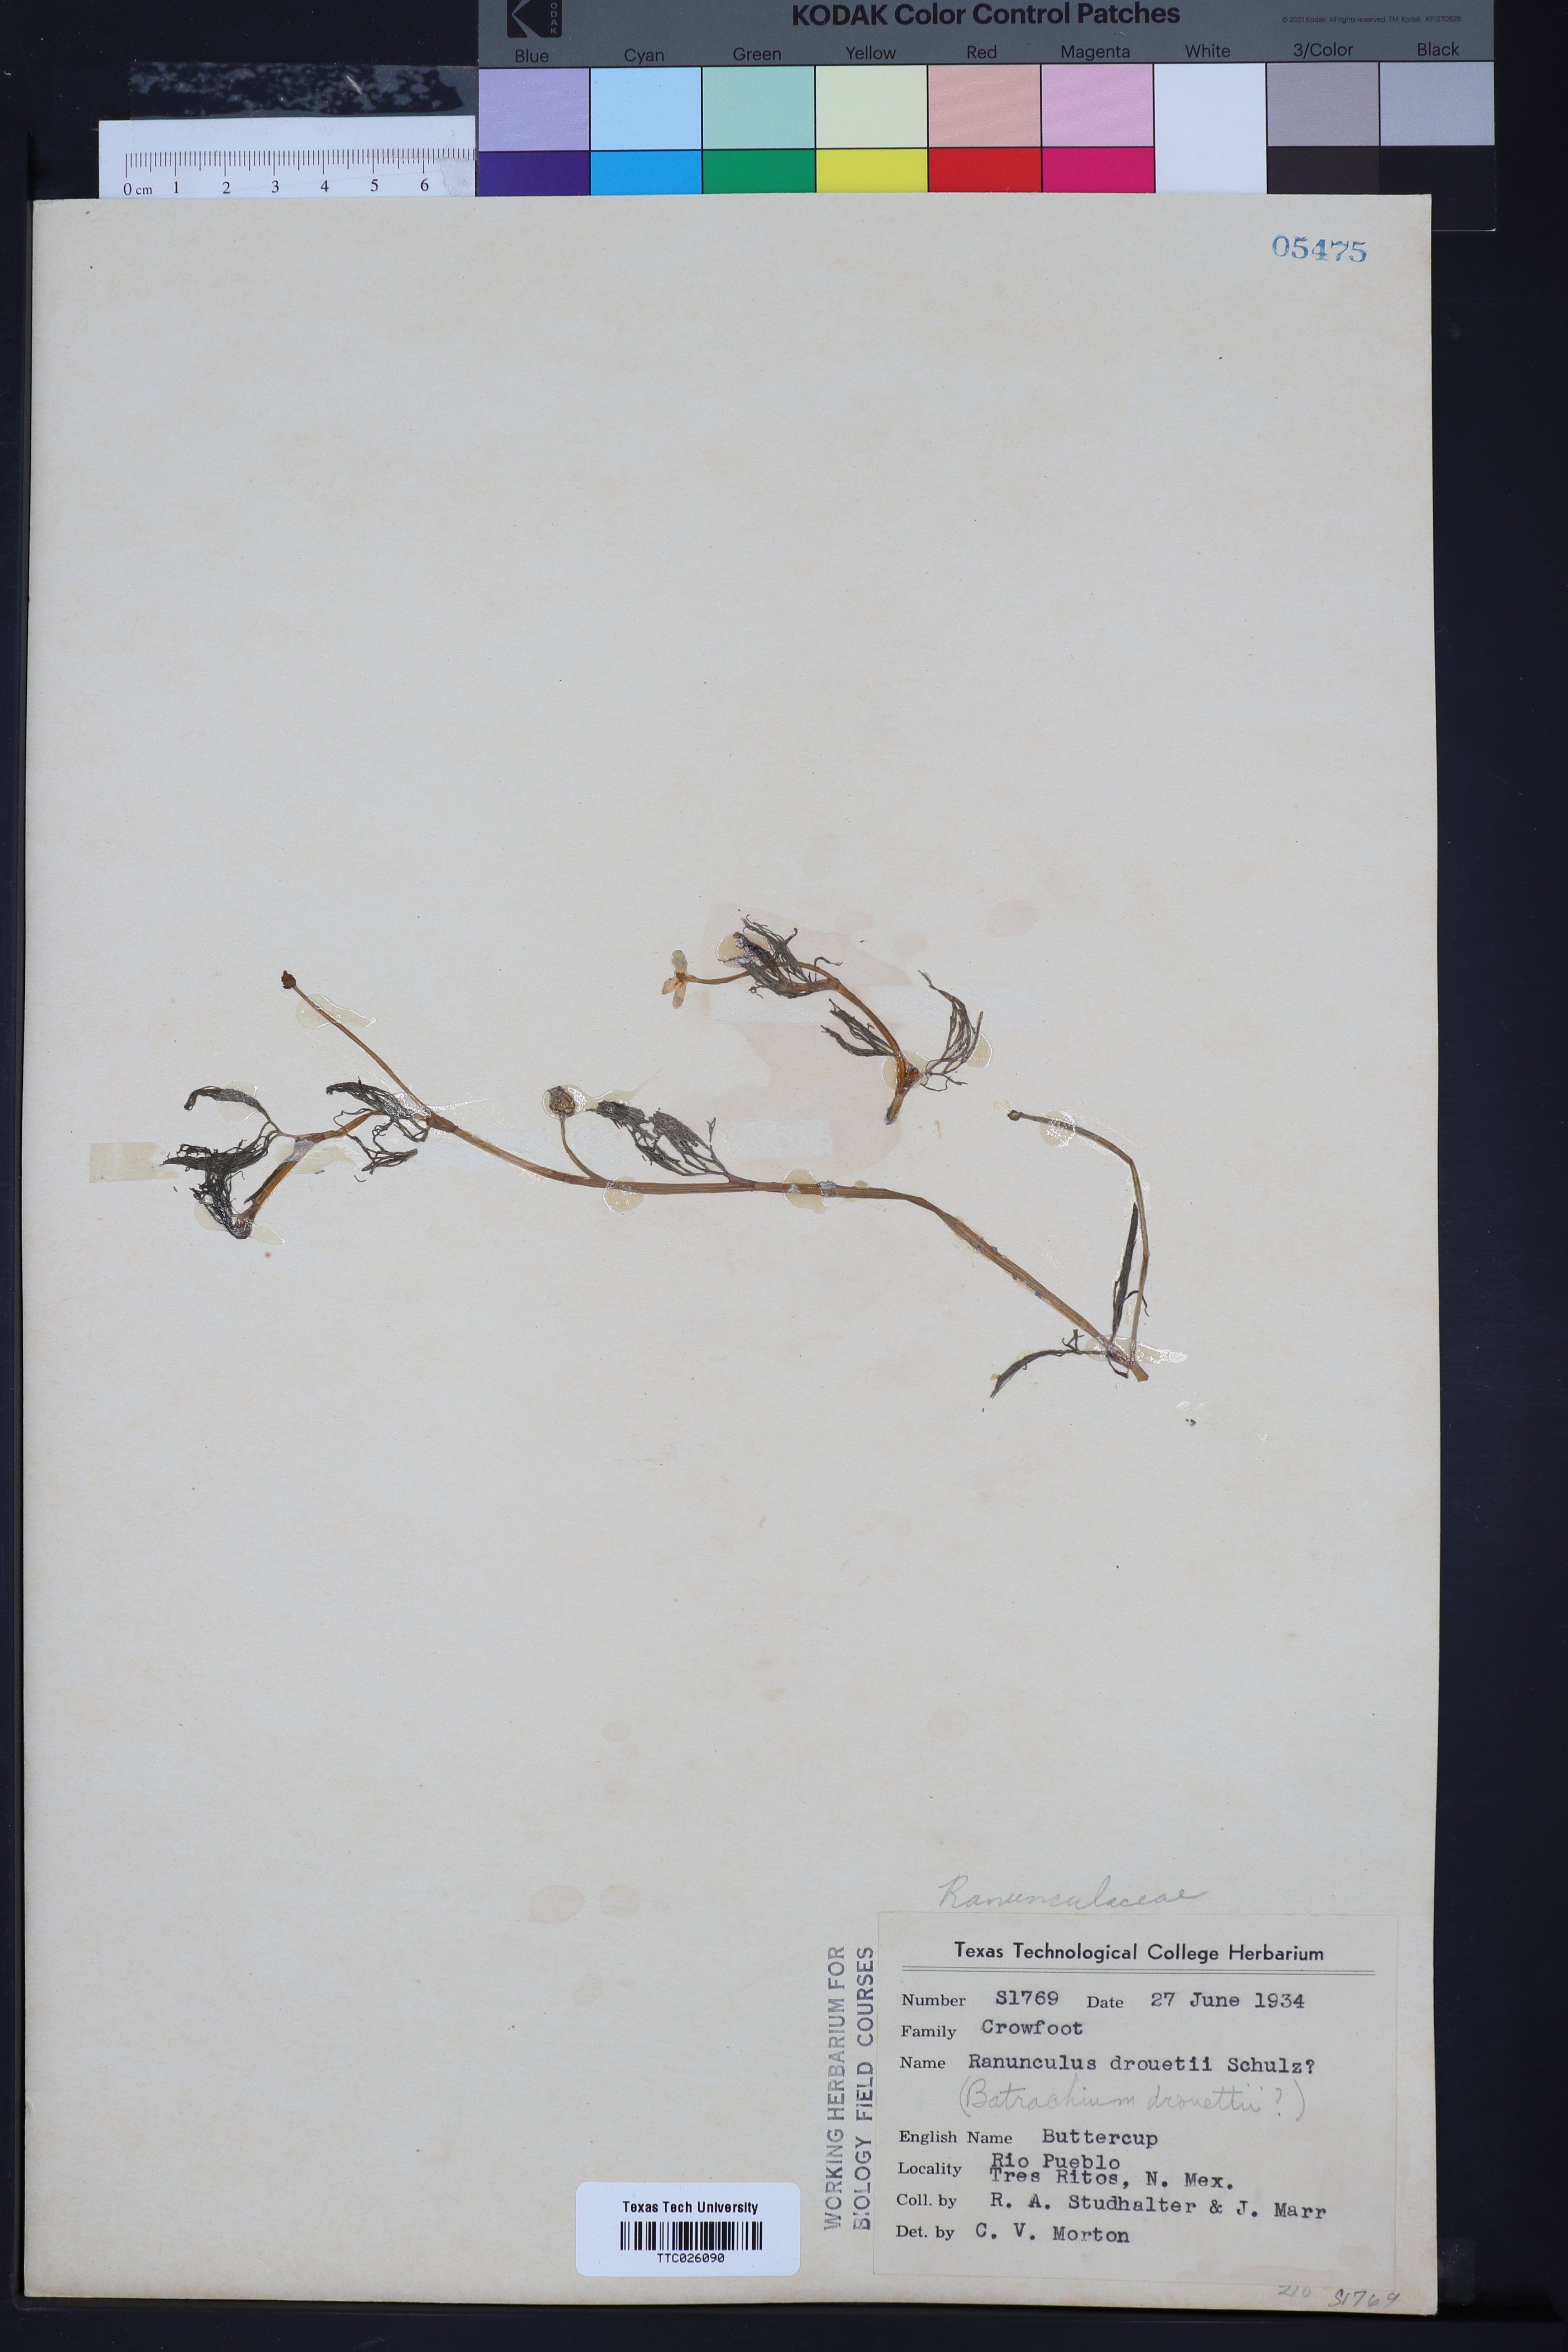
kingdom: Plantae
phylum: Tracheophyta
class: Magnoliopsida
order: Ranunculales
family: Ranunculaceae
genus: Ranunculus
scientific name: Ranunculus trichophyllus
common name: Thread-leaved water-crowfoot
